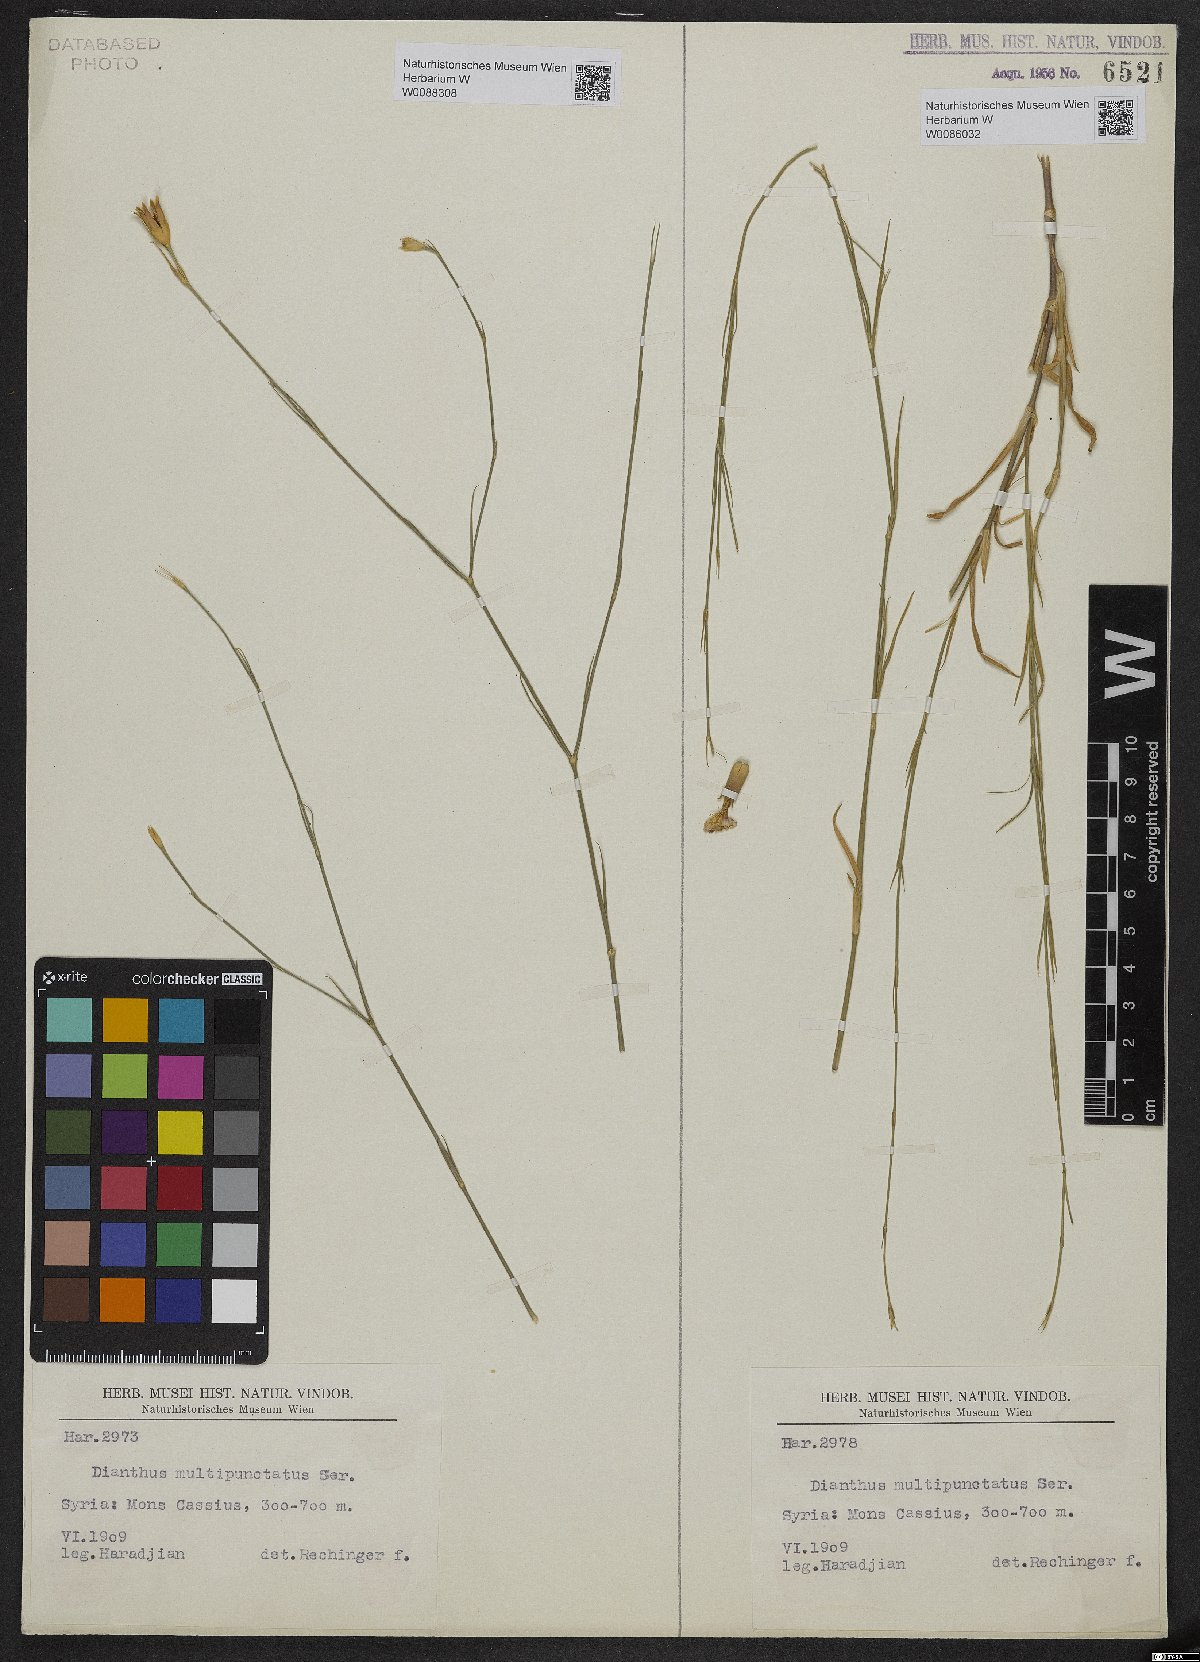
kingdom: Plantae
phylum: Tracheophyta
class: Magnoliopsida
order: Caryophyllales
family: Caryophyllaceae
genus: Dianthus
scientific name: Dianthus strictus
